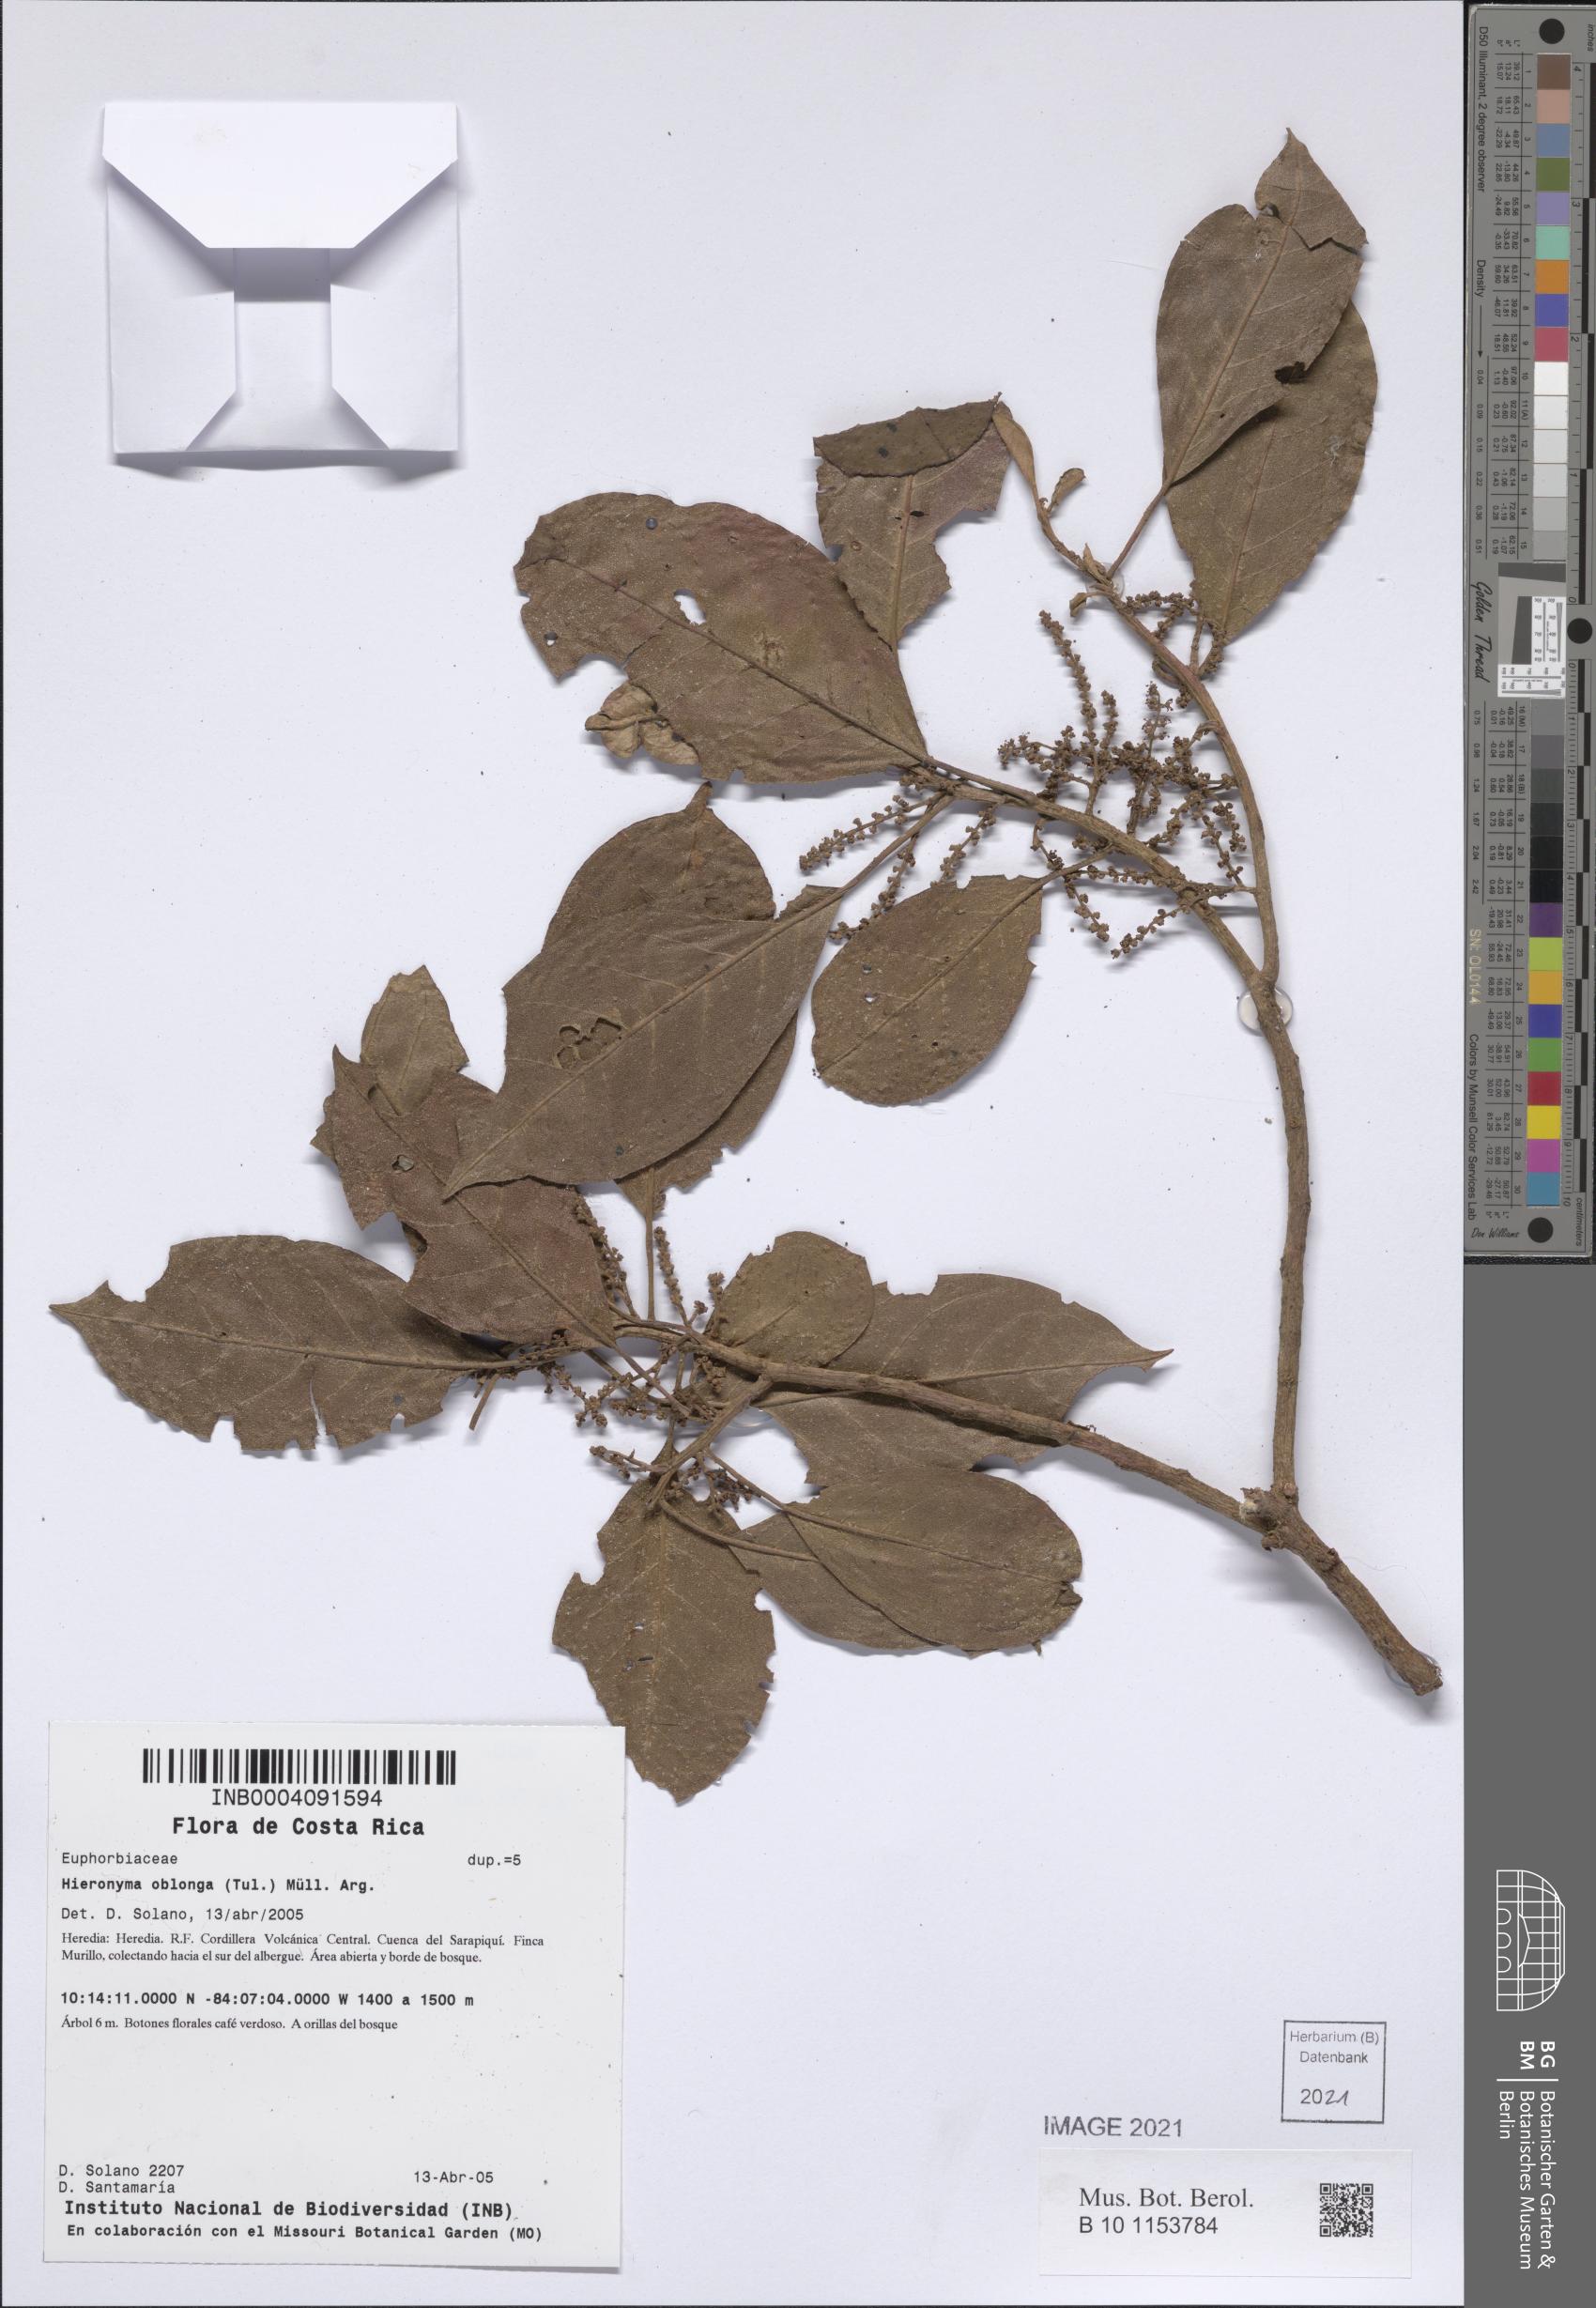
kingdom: Plantae
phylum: Tracheophyta
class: Magnoliopsida
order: Malpighiales
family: Phyllanthaceae
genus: Hieronyma
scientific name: Hieronyma oblonga
